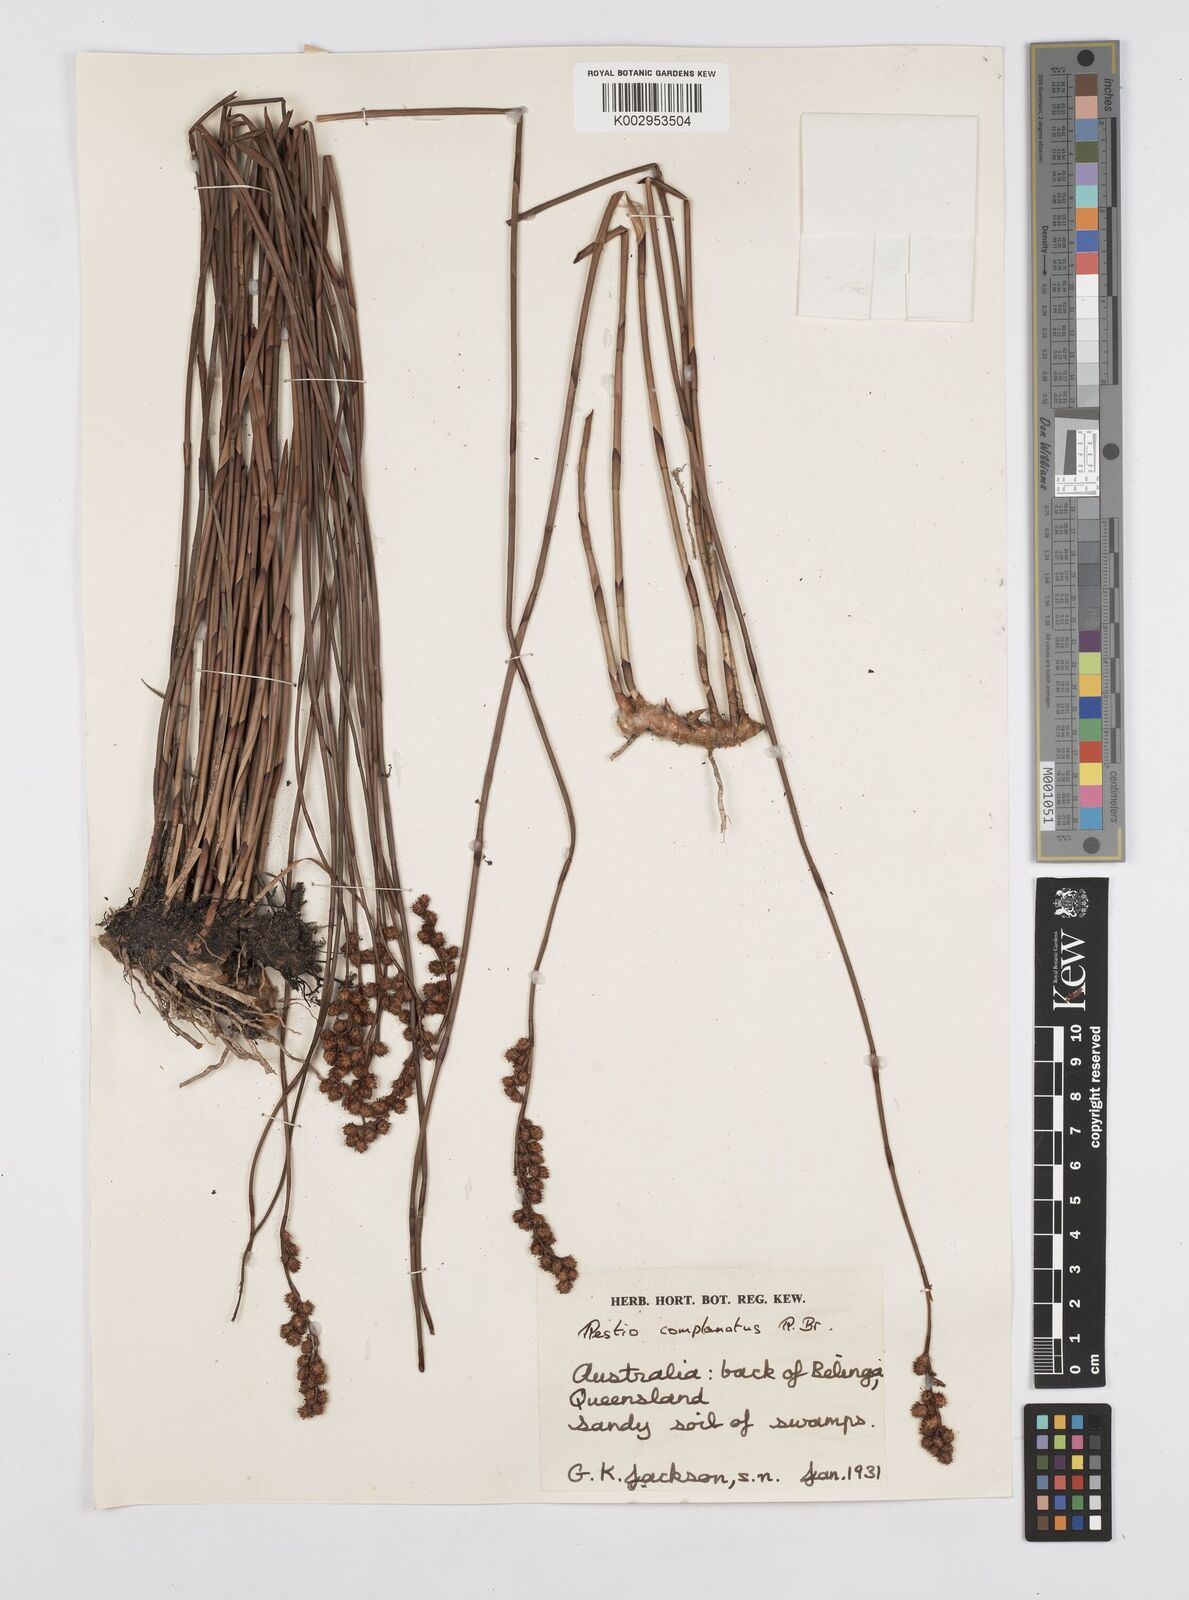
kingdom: Plantae
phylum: Tracheophyta
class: Liliopsida
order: Poales
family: Restionaceae
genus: Eurychorda
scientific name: Eurychorda complanata
